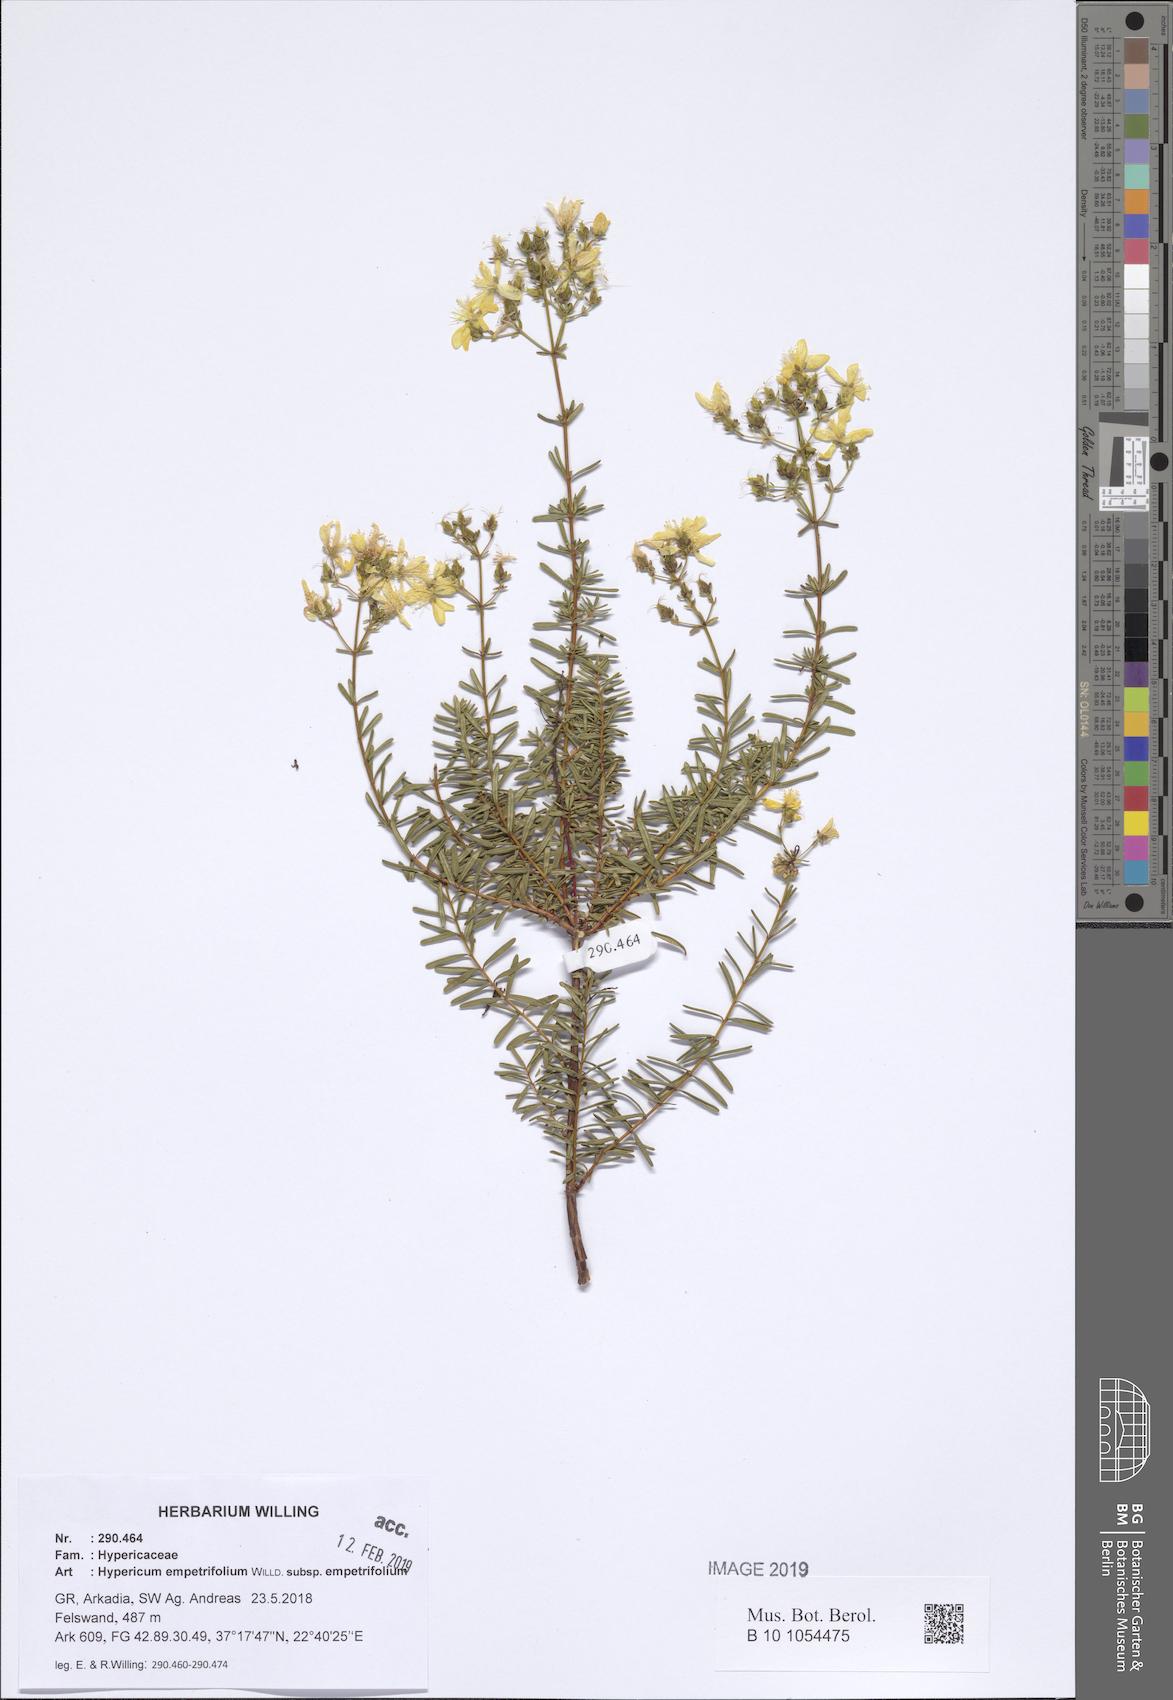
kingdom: Plantae
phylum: Tracheophyta
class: Magnoliopsida
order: Malpighiales
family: Hypericaceae
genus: Hypericum
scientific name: Hypericum empetrifolium
